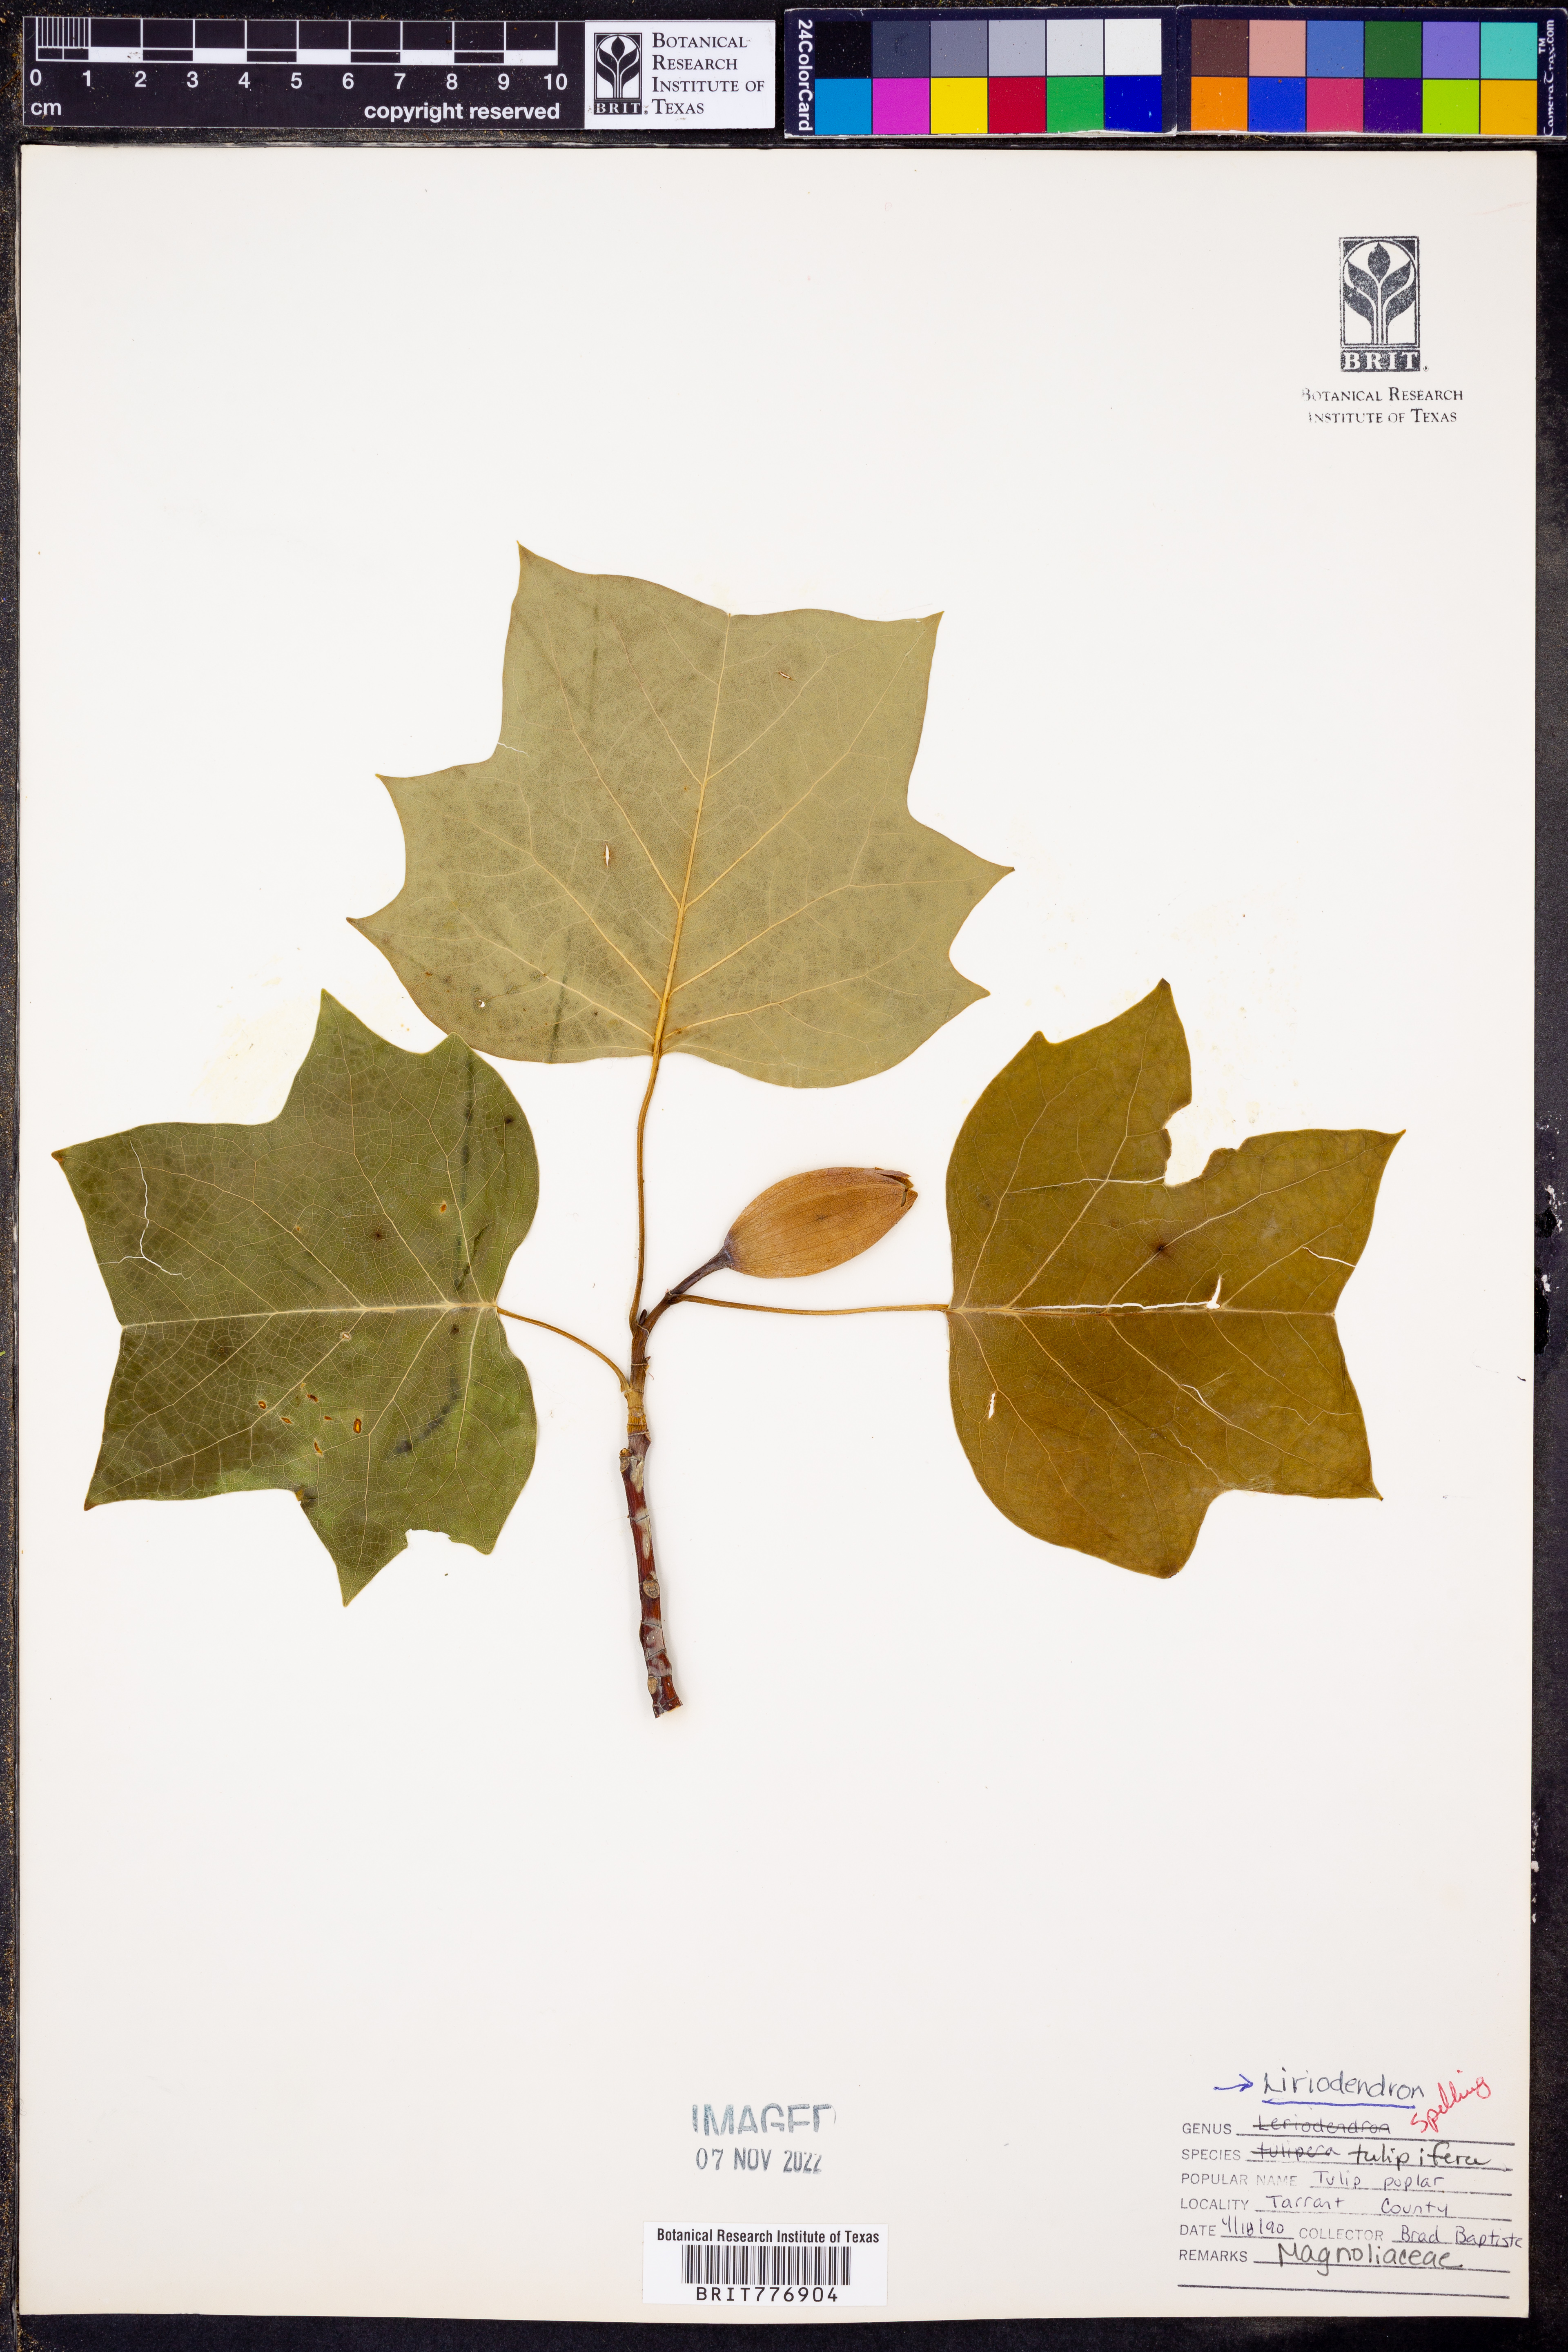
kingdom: Plantae
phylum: Tracheophyta
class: Magnoliopsida
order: Magnoliales
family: Magnoliaceae
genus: Liriodendron
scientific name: Liriodendron tulipifera
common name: Tulip tree
